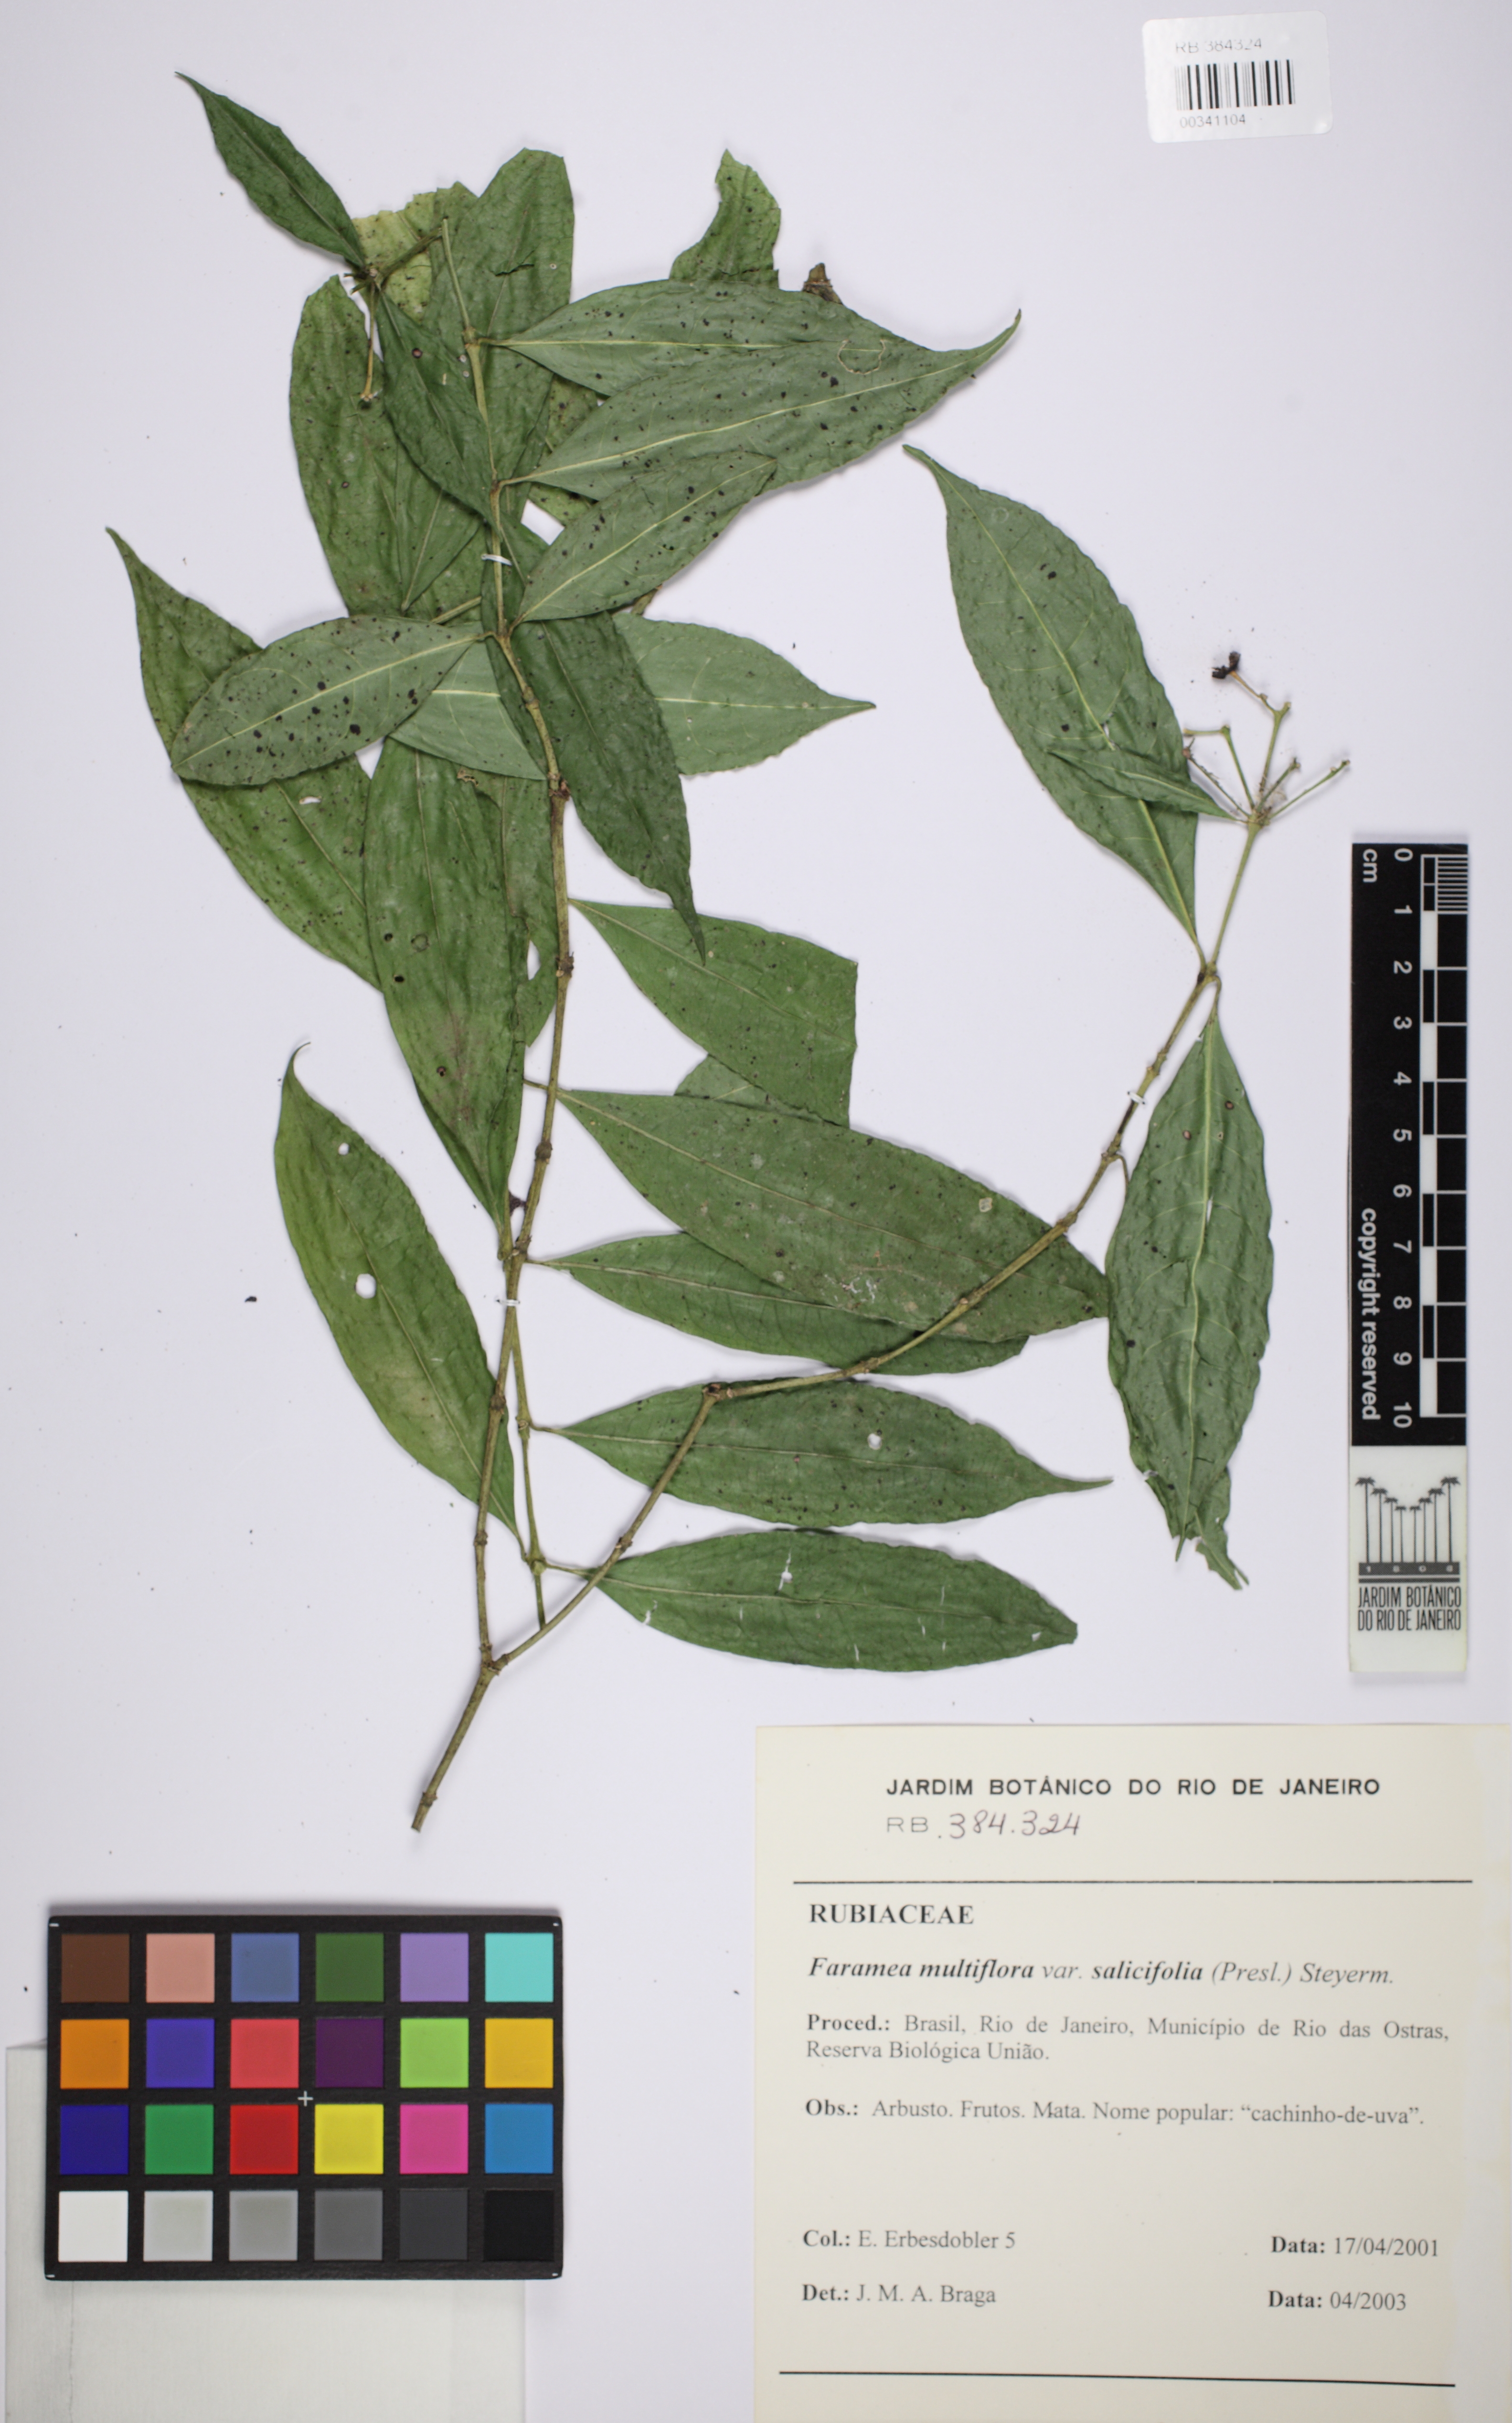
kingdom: Plantae
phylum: Tracheophyta
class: Magnoliopsida
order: Gentianales
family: Rubiaceae
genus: Faramea
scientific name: Faramea multiflora
